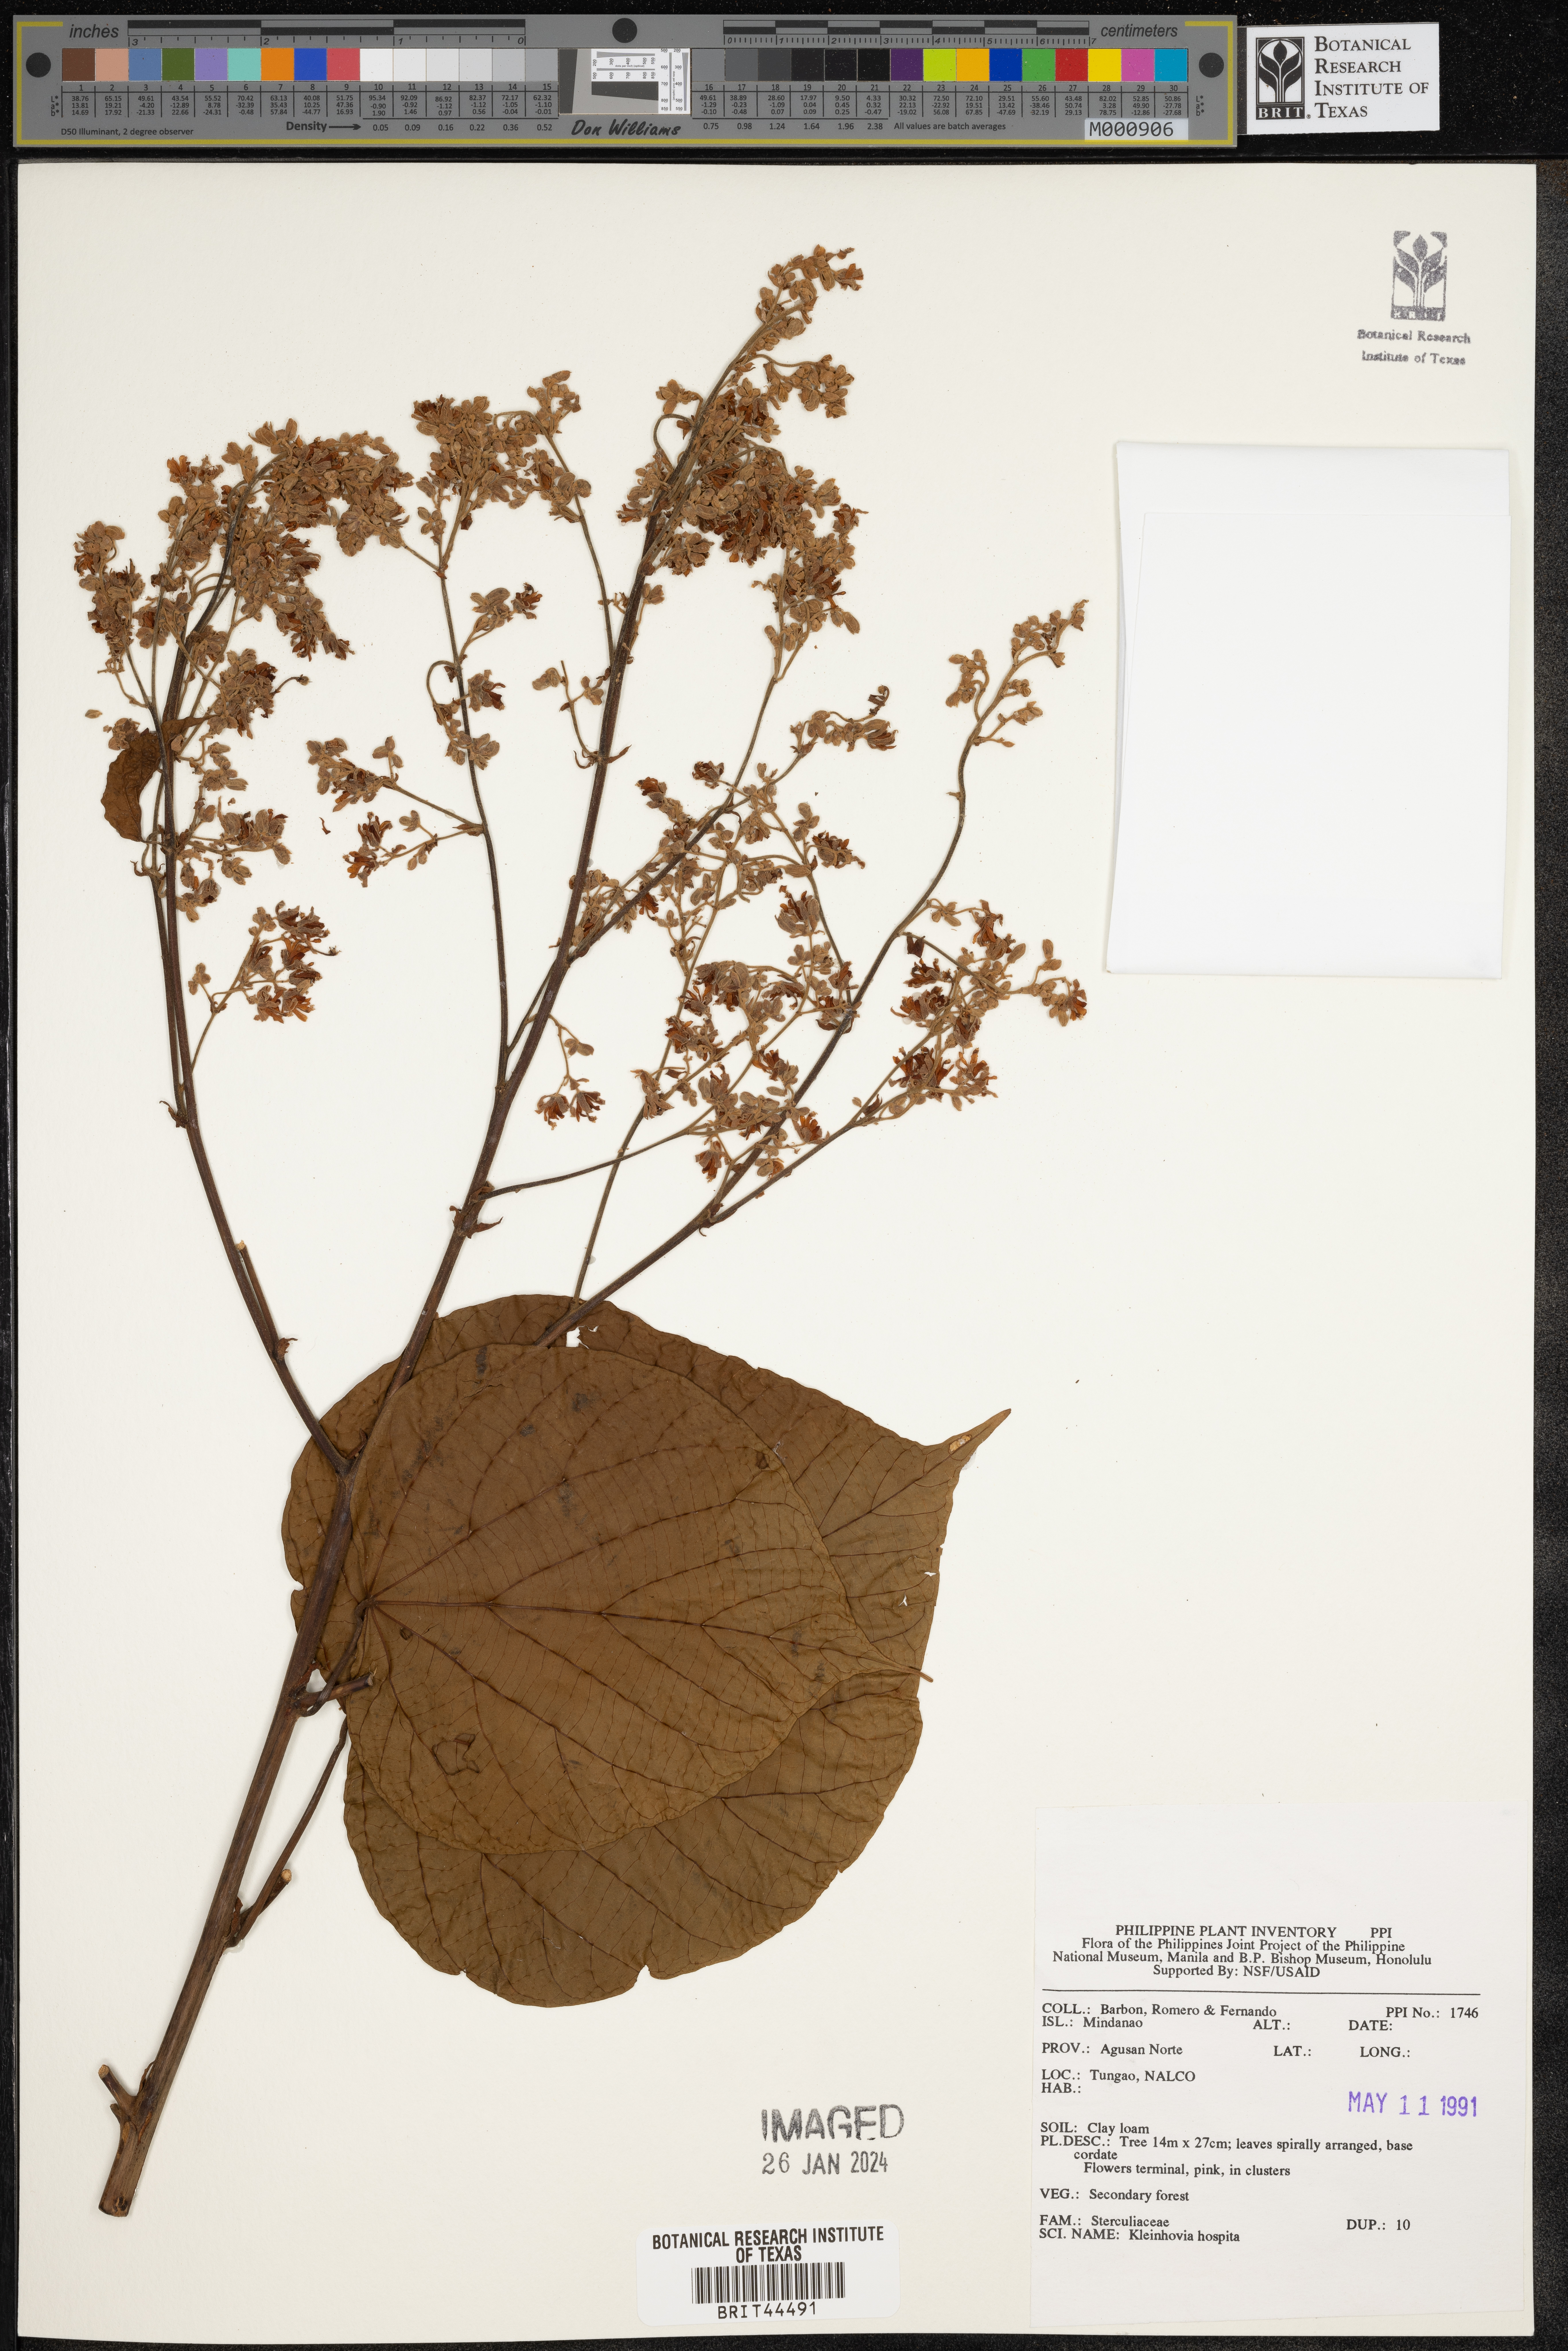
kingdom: Plantae
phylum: Tracheophyta
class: Magnoliopsida
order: Malvales
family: Malvaceae
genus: Kleinhovia
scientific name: Kleinhovia hospita
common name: Guest-tree
